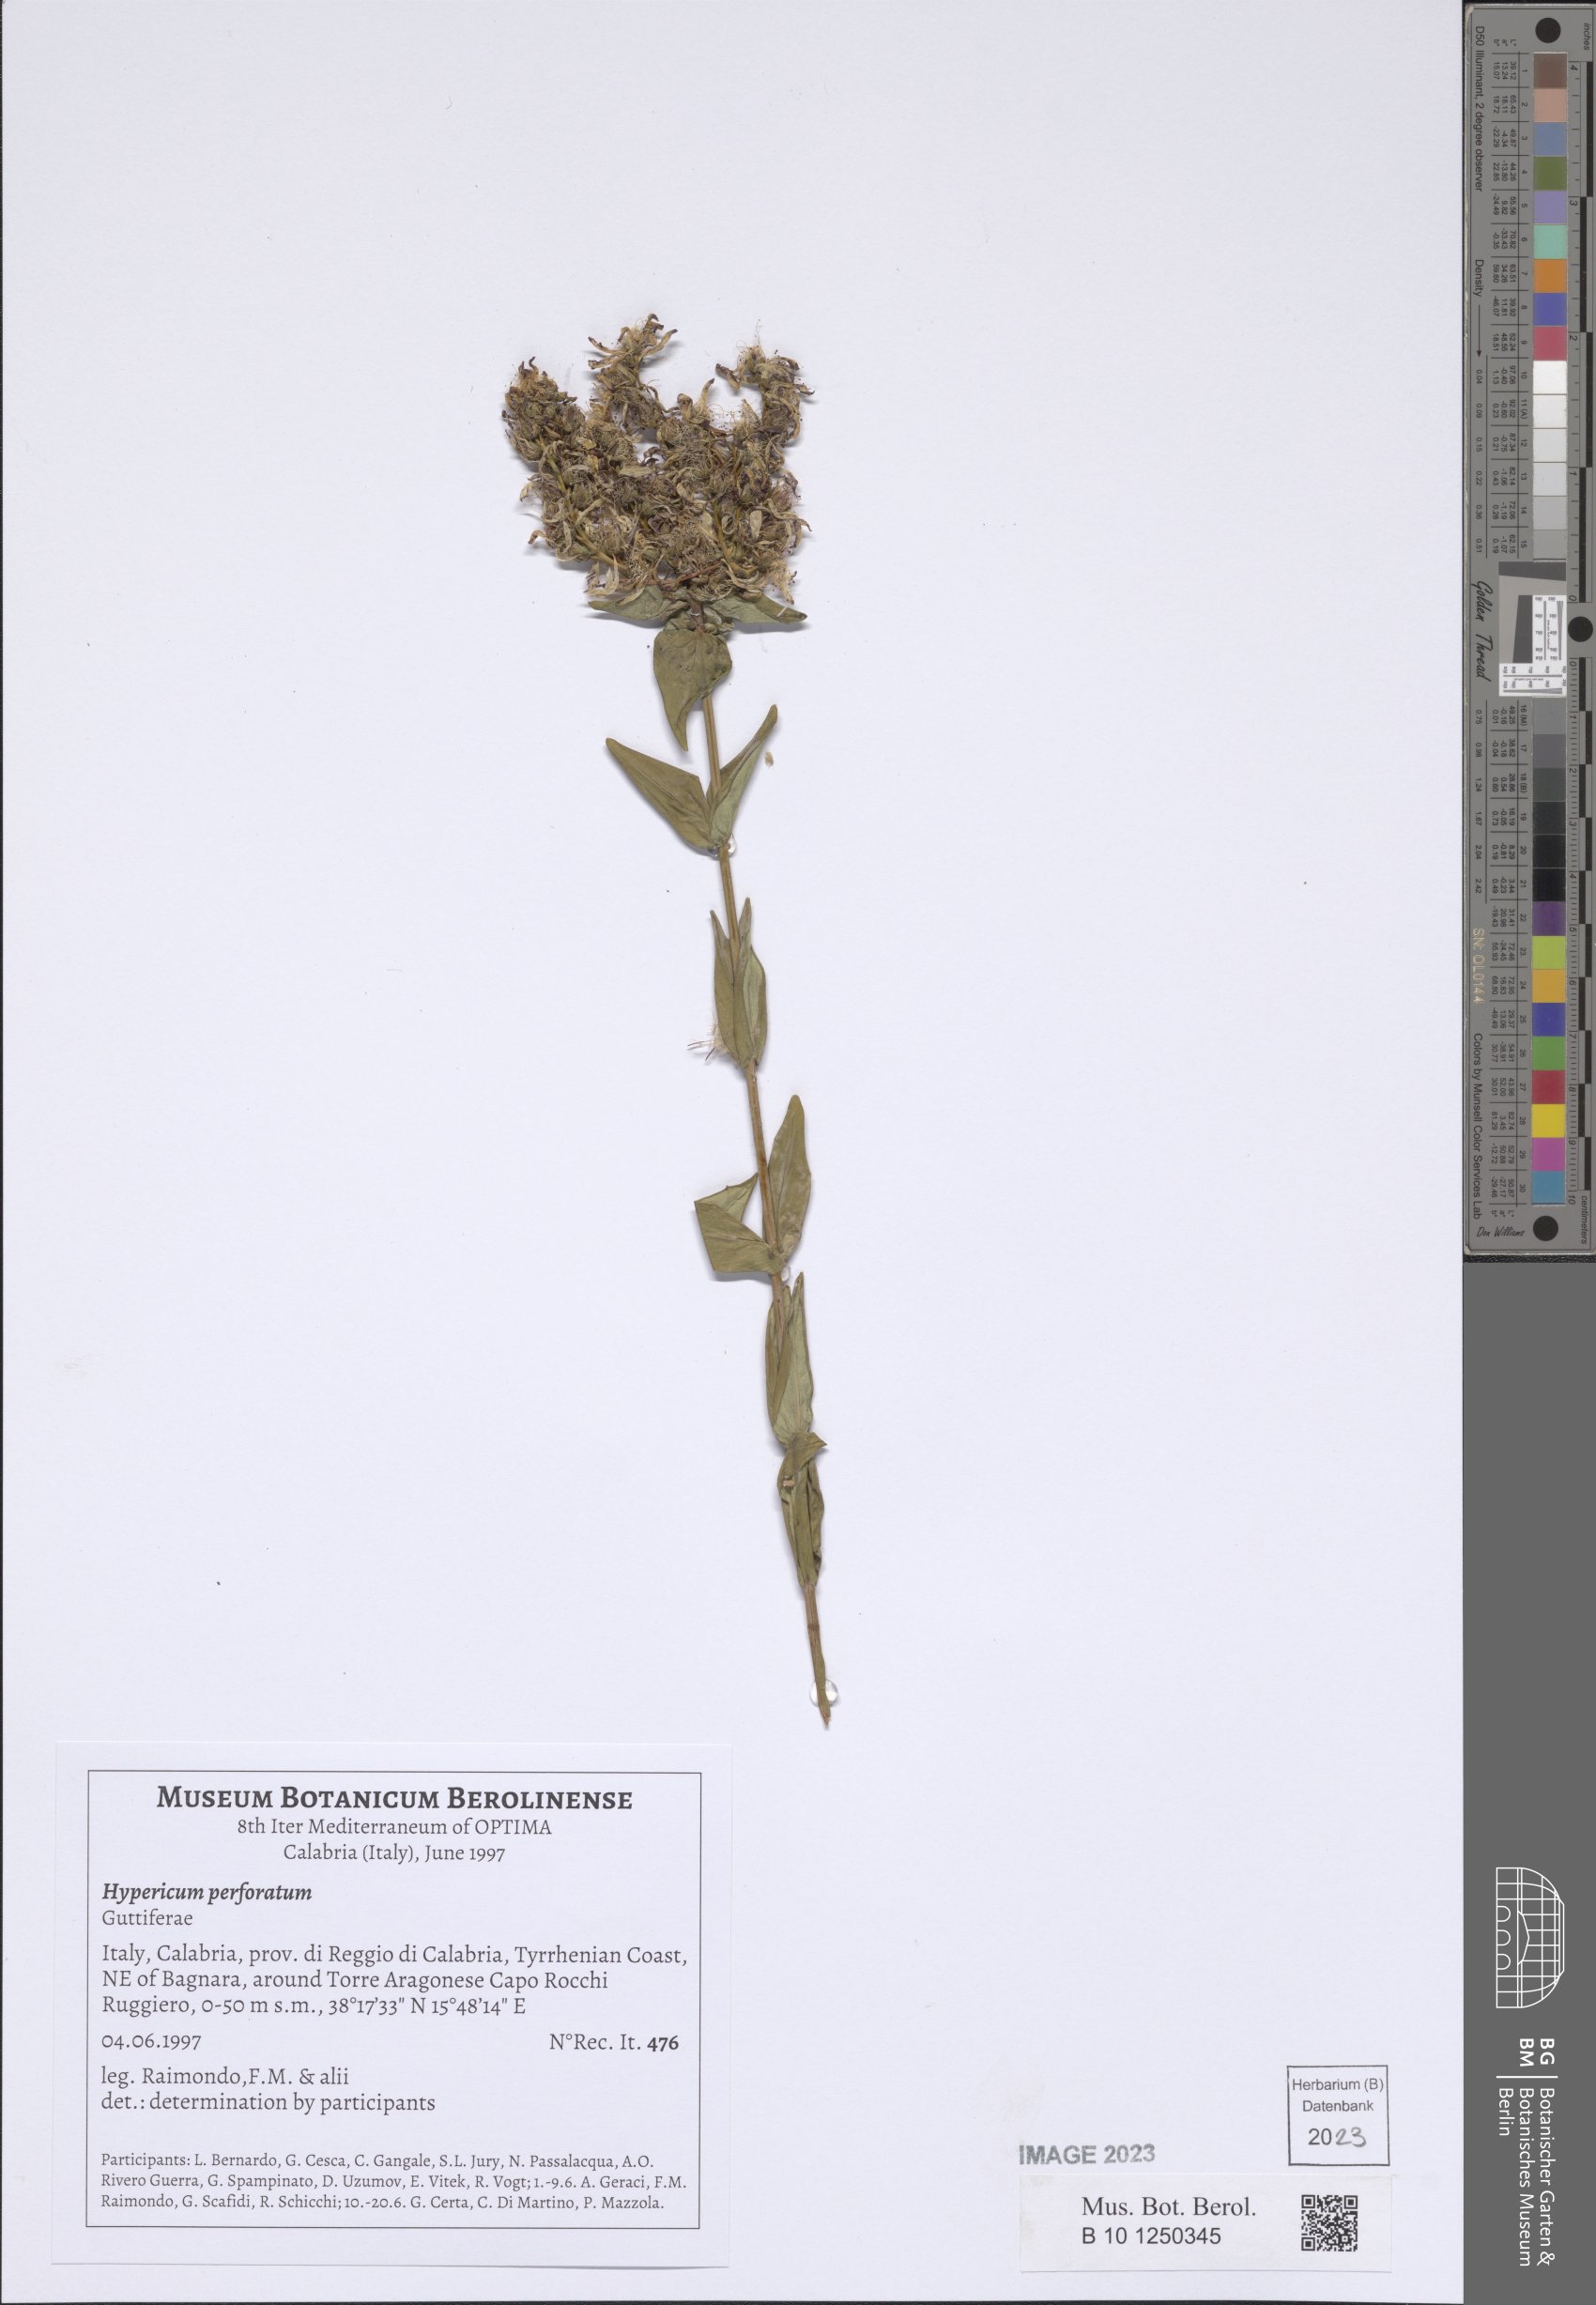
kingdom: Plantae
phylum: Tracheophyta
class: Magnoliopsida
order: Malpighiales
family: Hypericaceae
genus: Hypericum
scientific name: Hypericum perforatum
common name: Common st. johnswort
